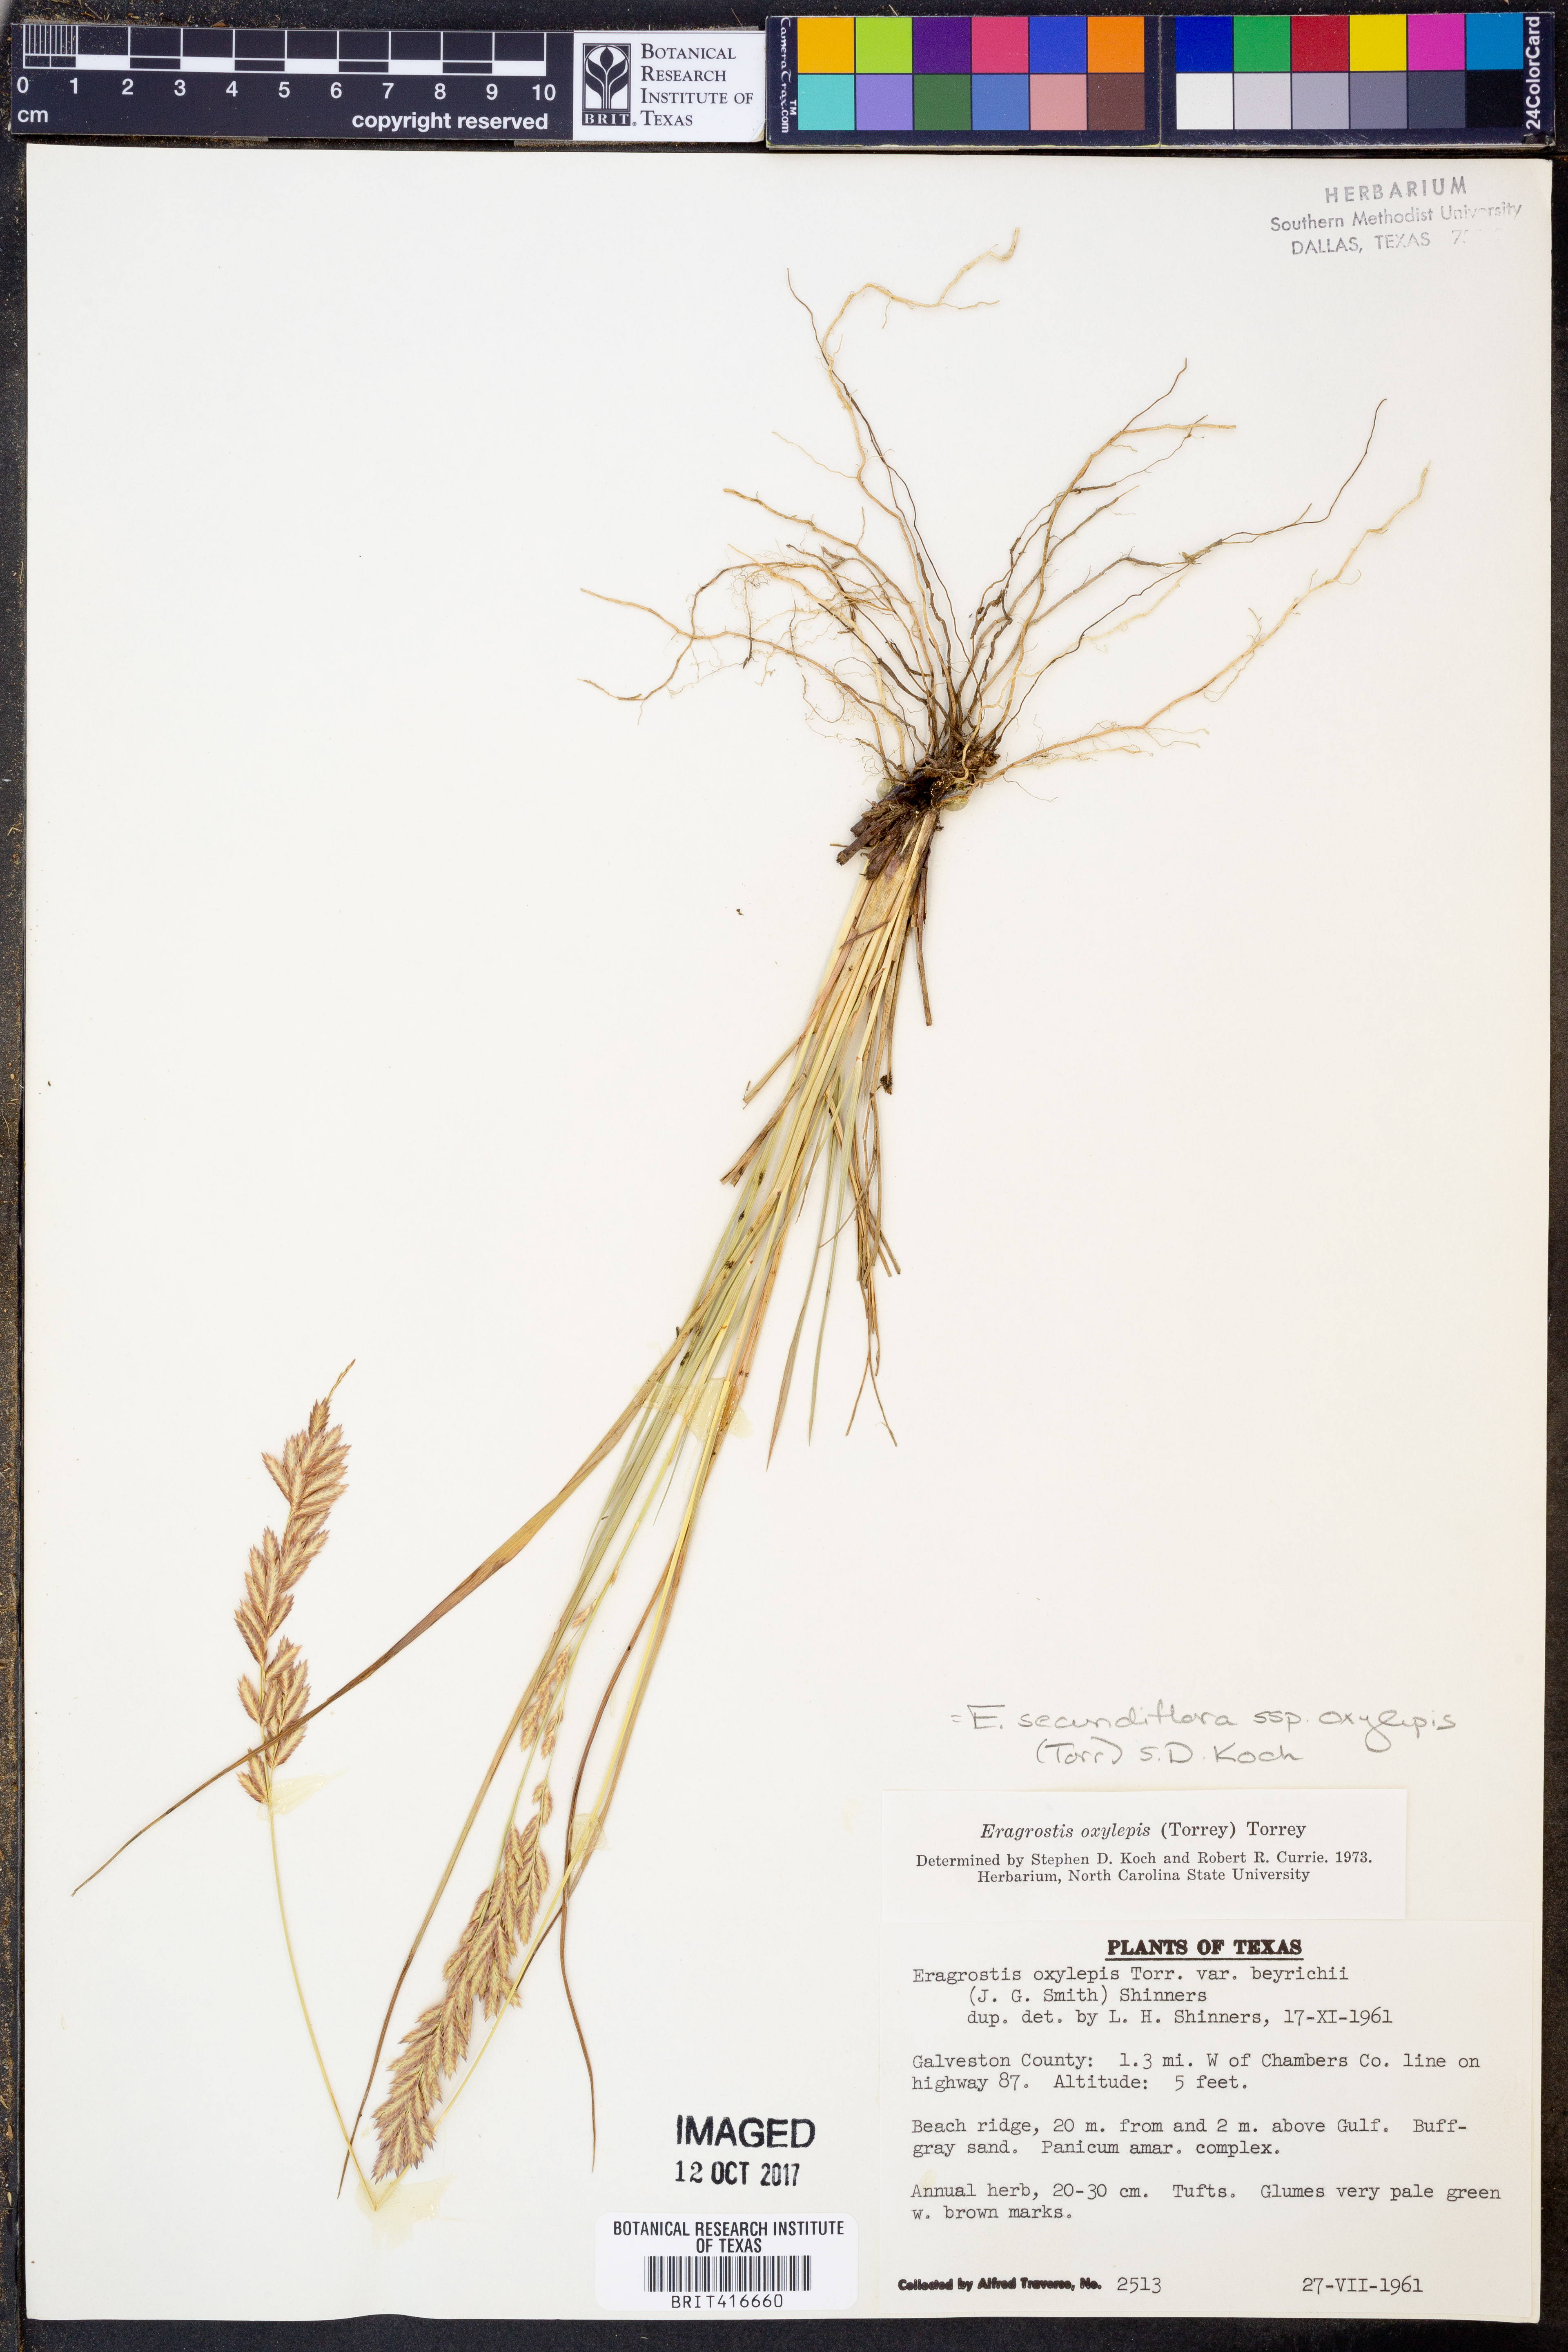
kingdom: Plantae
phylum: Tracheophyta
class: Liliopsida
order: Poales
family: Poaceae
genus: Eragrostis
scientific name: Eragrostis secundiflora
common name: Red love grass
